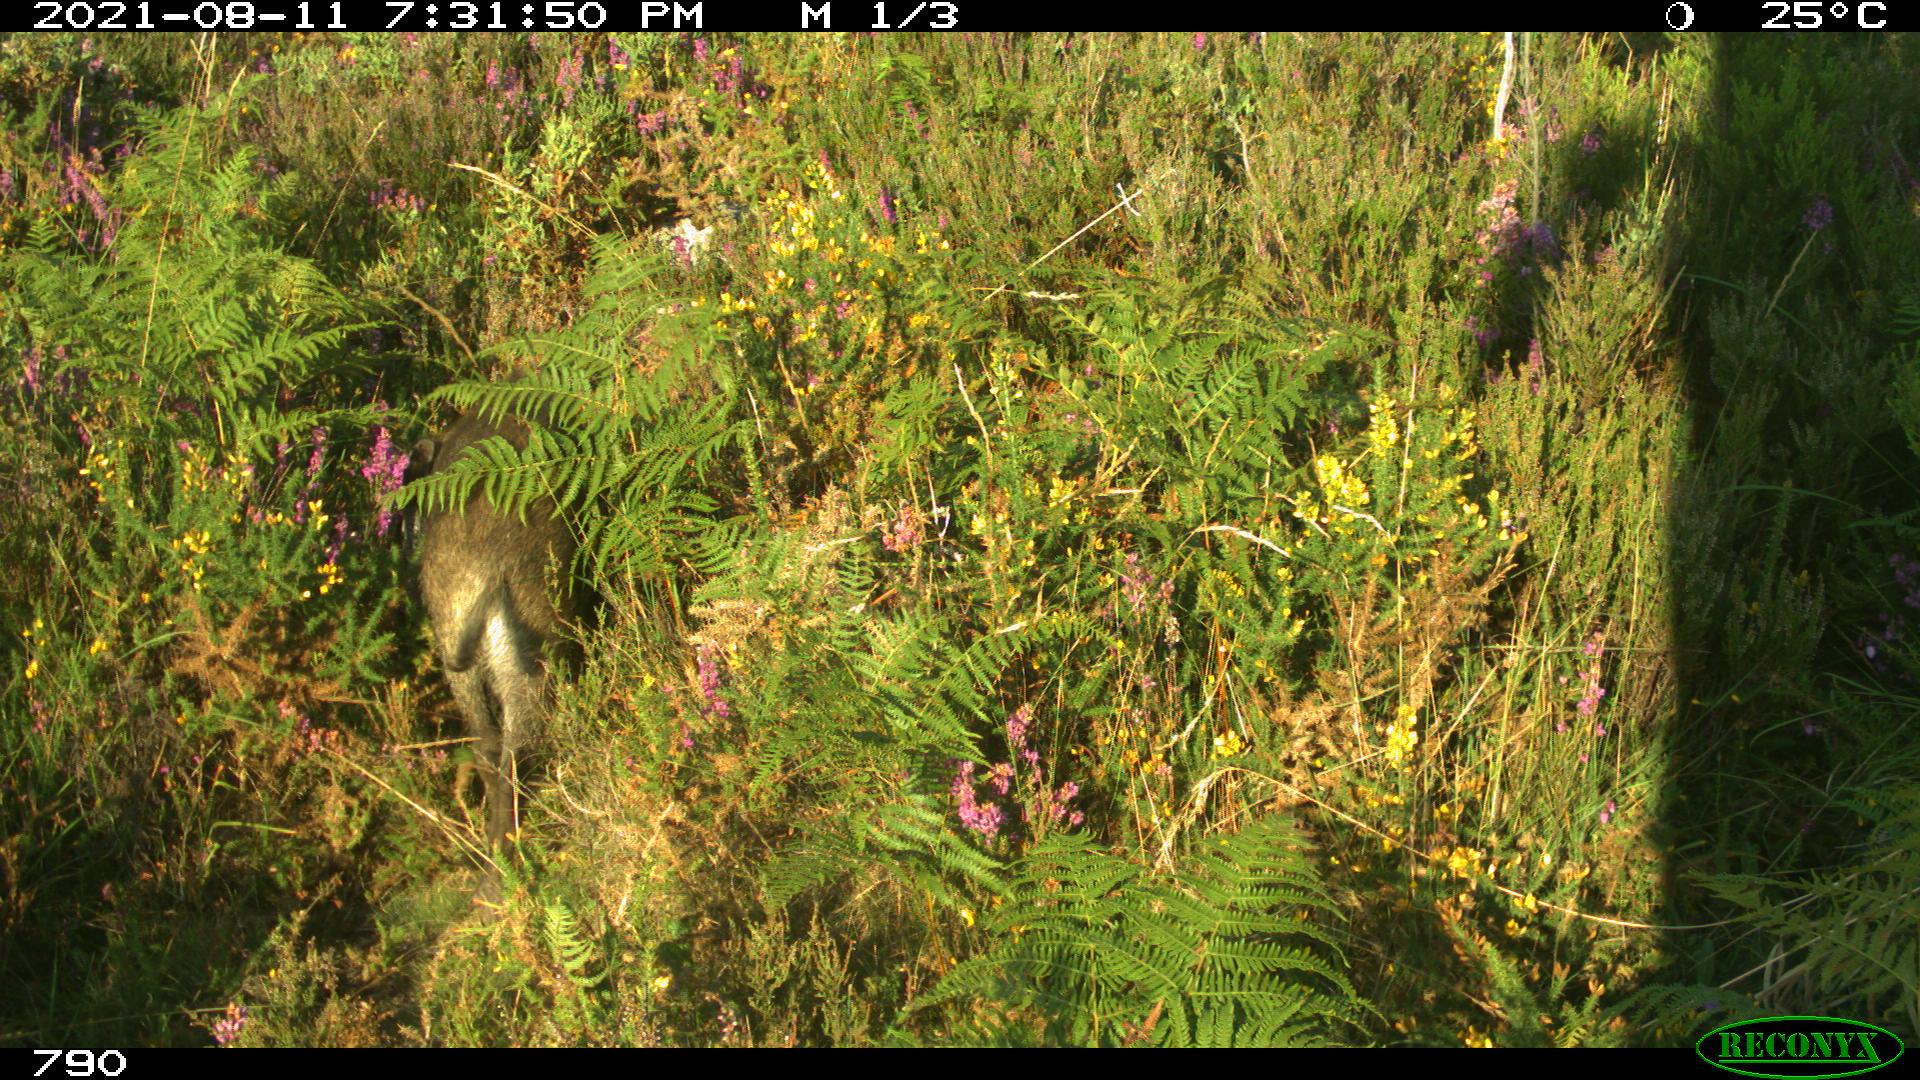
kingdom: Animalia
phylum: Chordata
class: Mammalia
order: Artiodactyla
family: Suidae
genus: Sus
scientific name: Sus scrofa
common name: Wild boar
